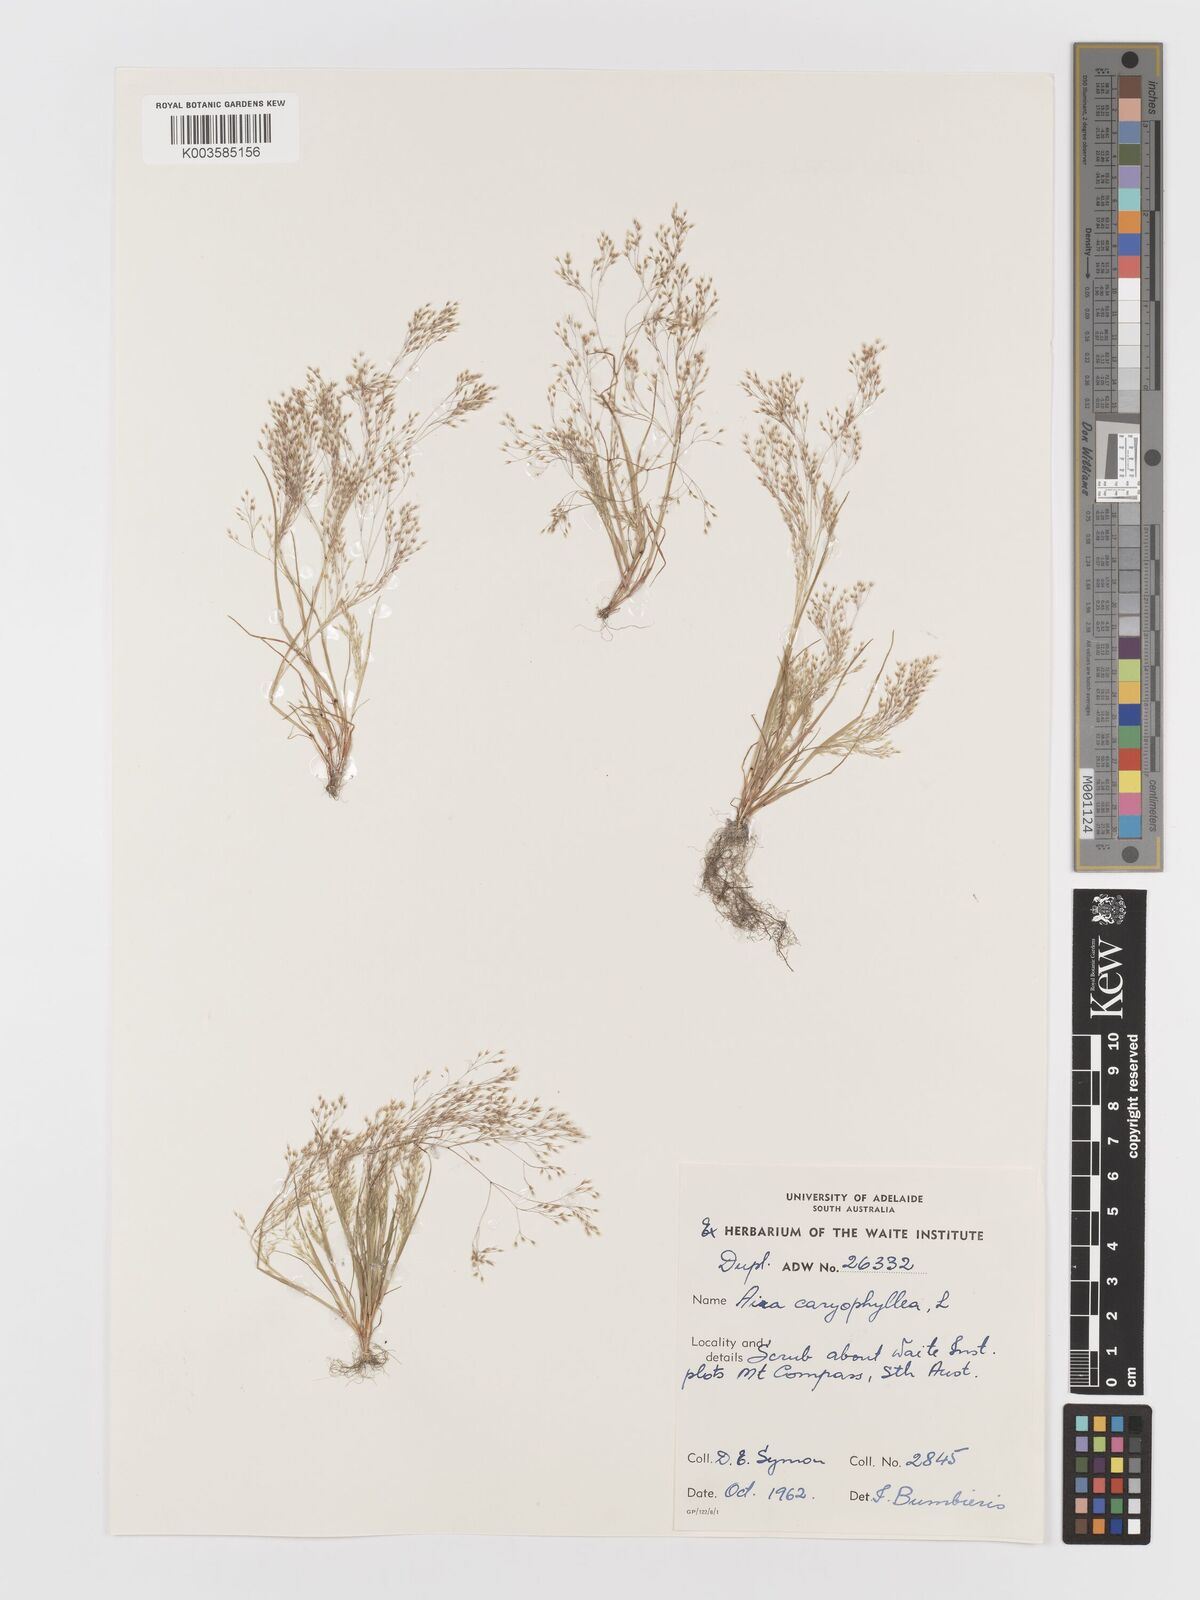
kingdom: Plantae
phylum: Tracheophyta
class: Liliopsida
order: Poales
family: Poaceae
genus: Aira
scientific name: Aira elegans
